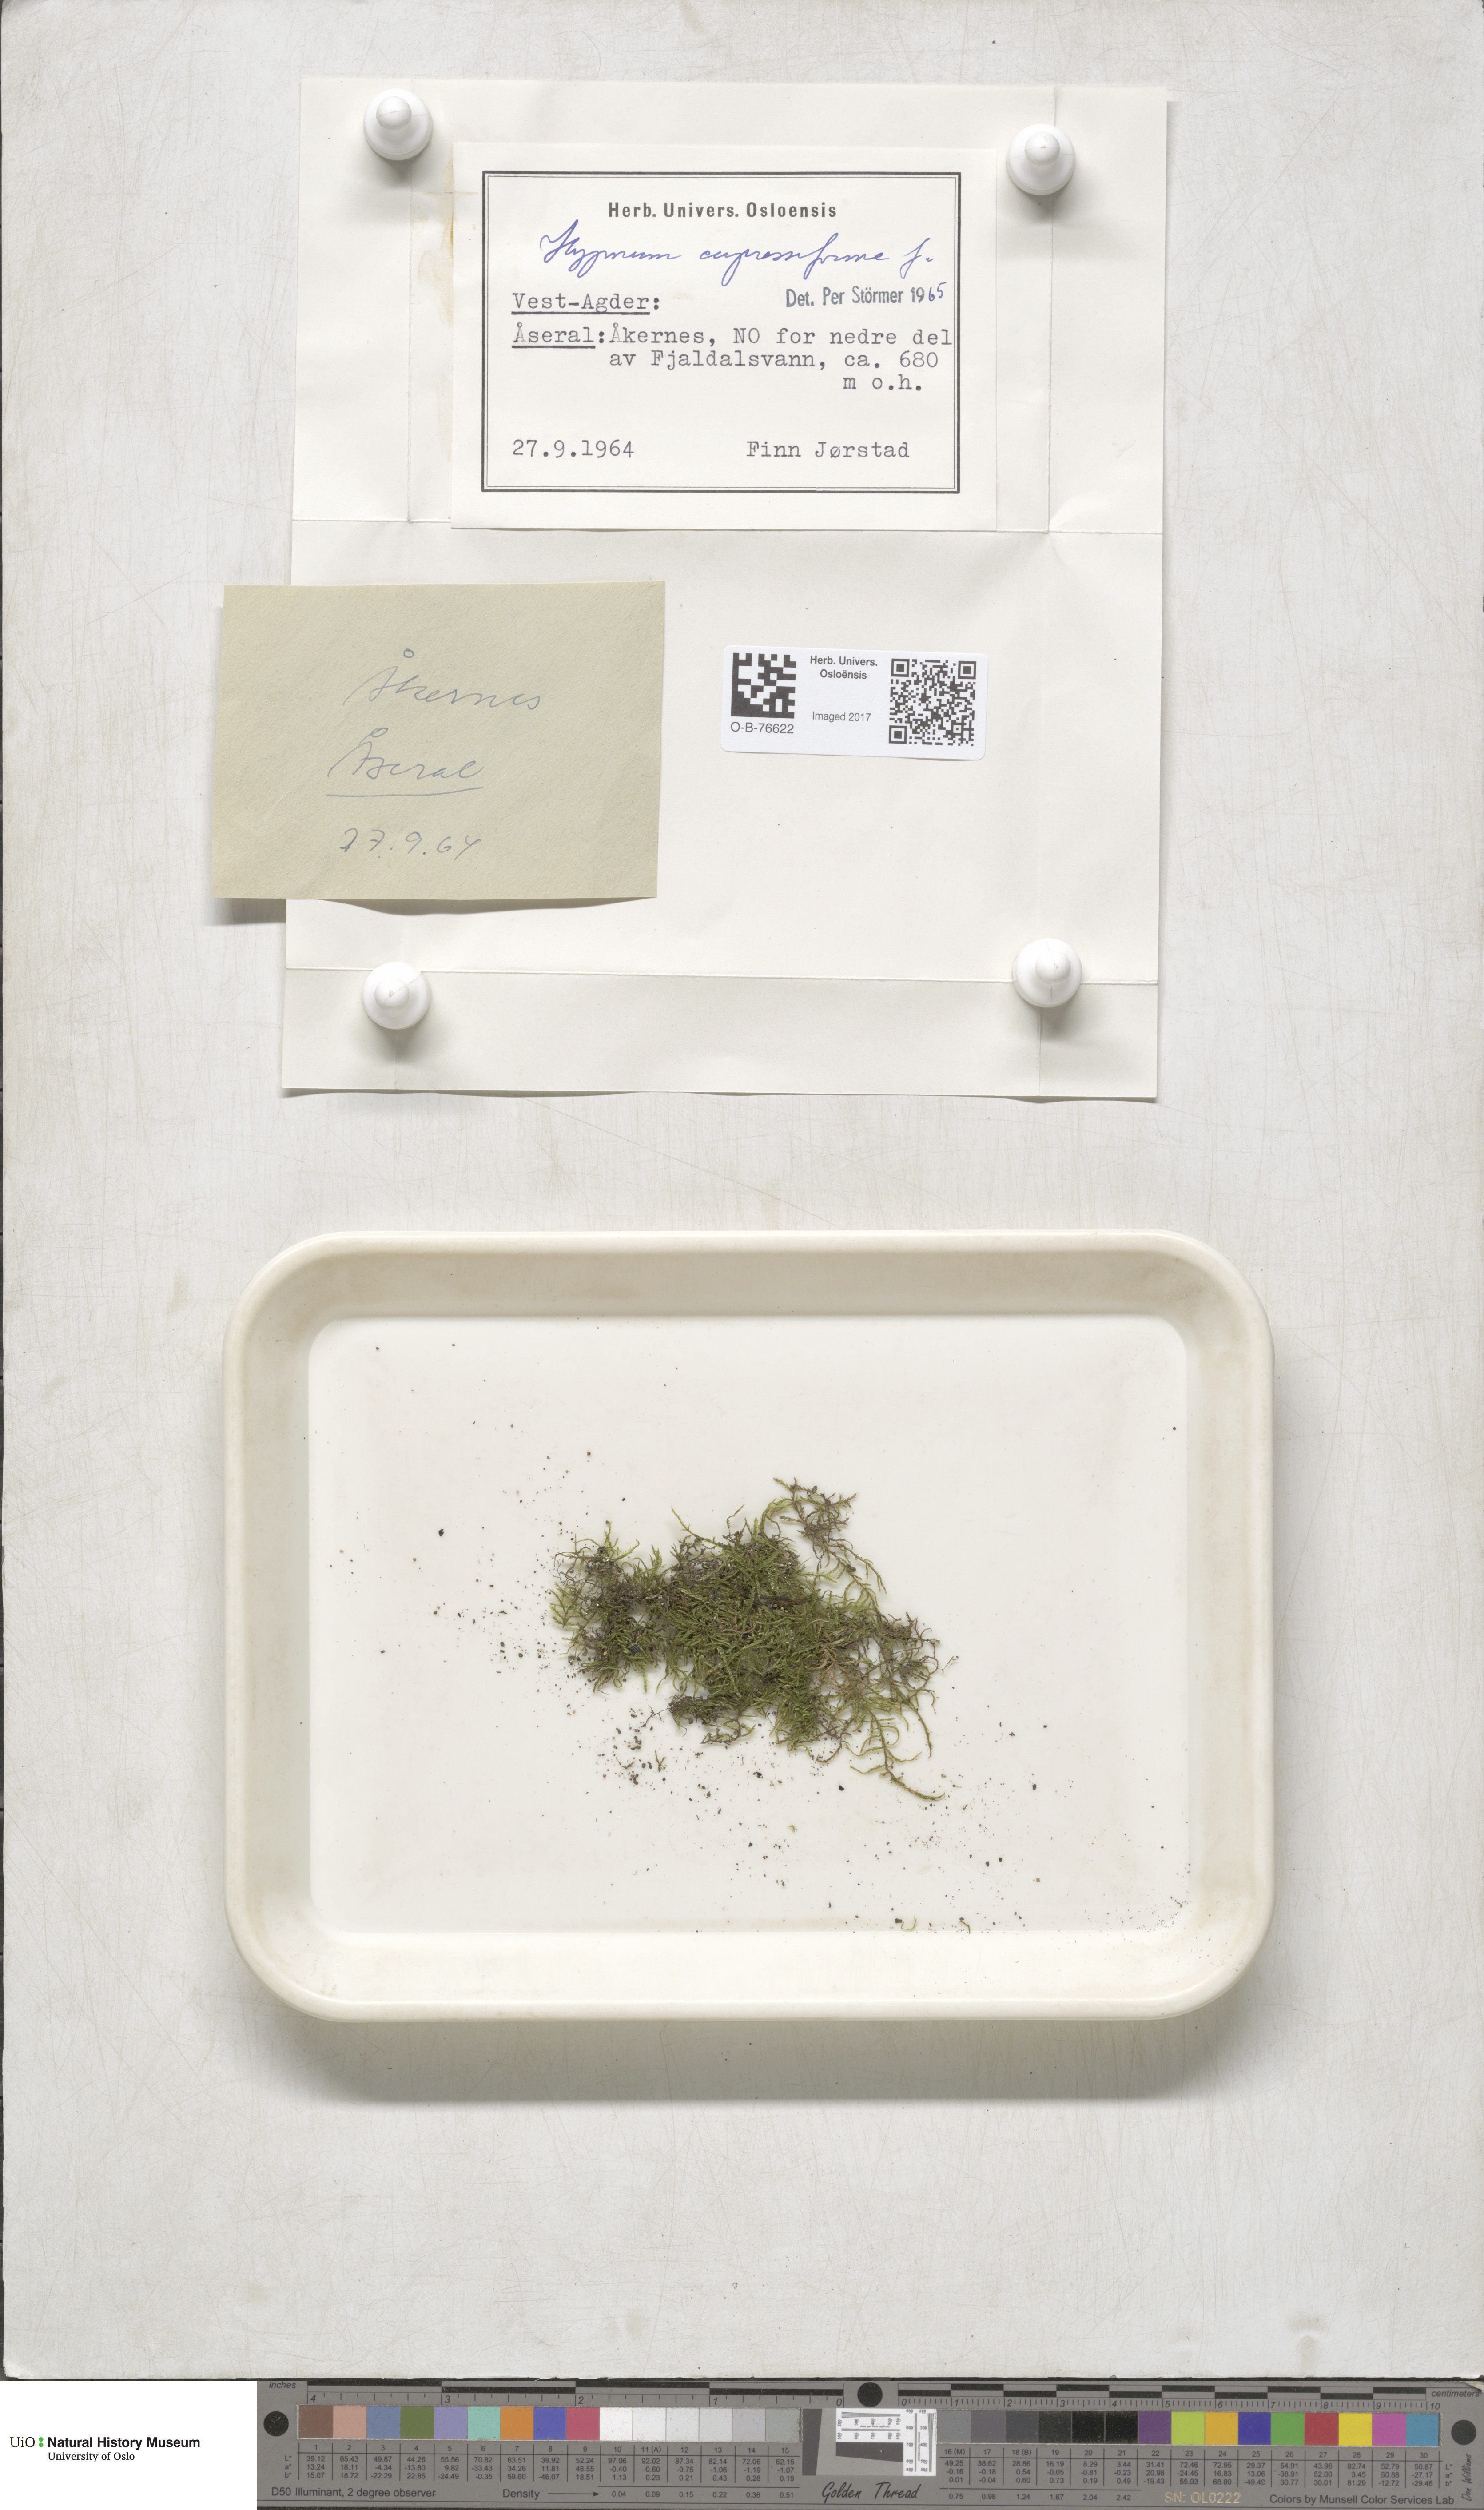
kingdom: Plantae
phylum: Bryophyta
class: Bryopsida
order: Hypnales
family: Hypnaceae
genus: Hypnum
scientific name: Hypnum cupressiforme
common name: Cypress-leaved plait-moss
